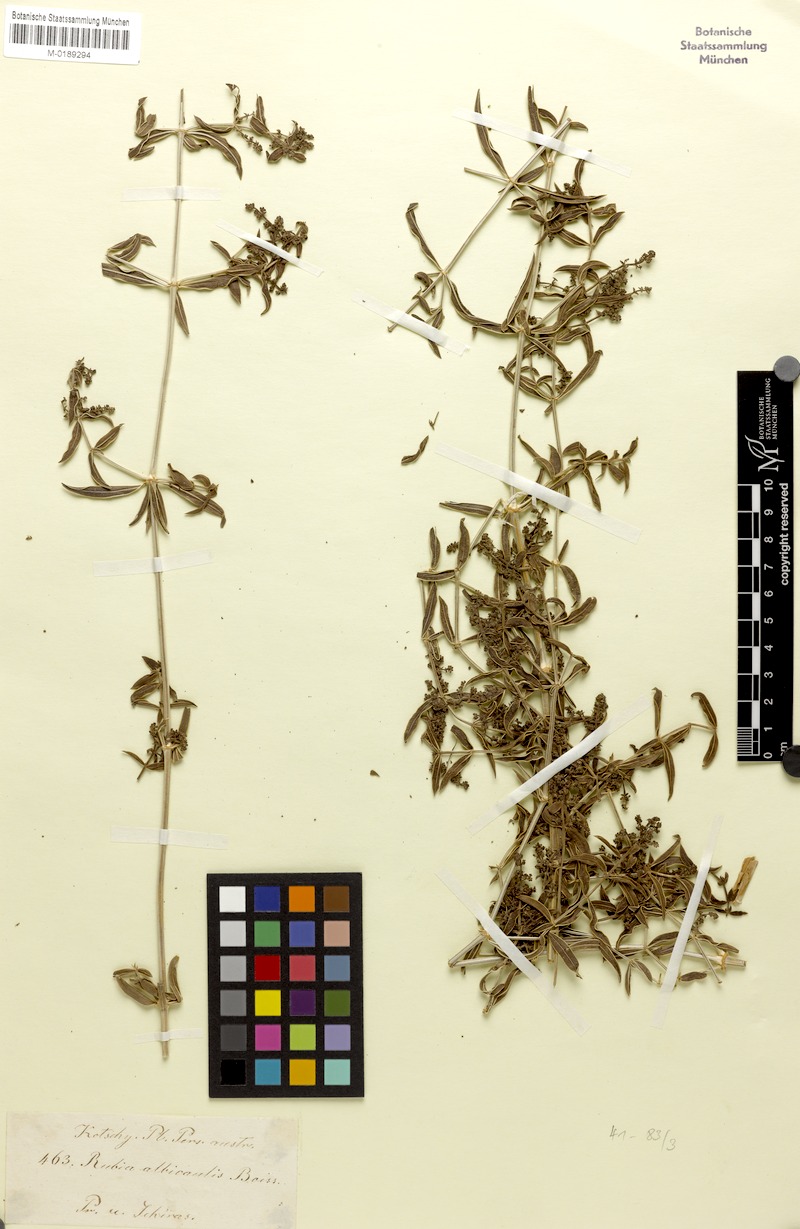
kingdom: Plantae
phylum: Tracheophyta
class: Magnoliopsida
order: Gentianales
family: Rubiaceae
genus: Rubia
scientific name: Rubia albicaulis
